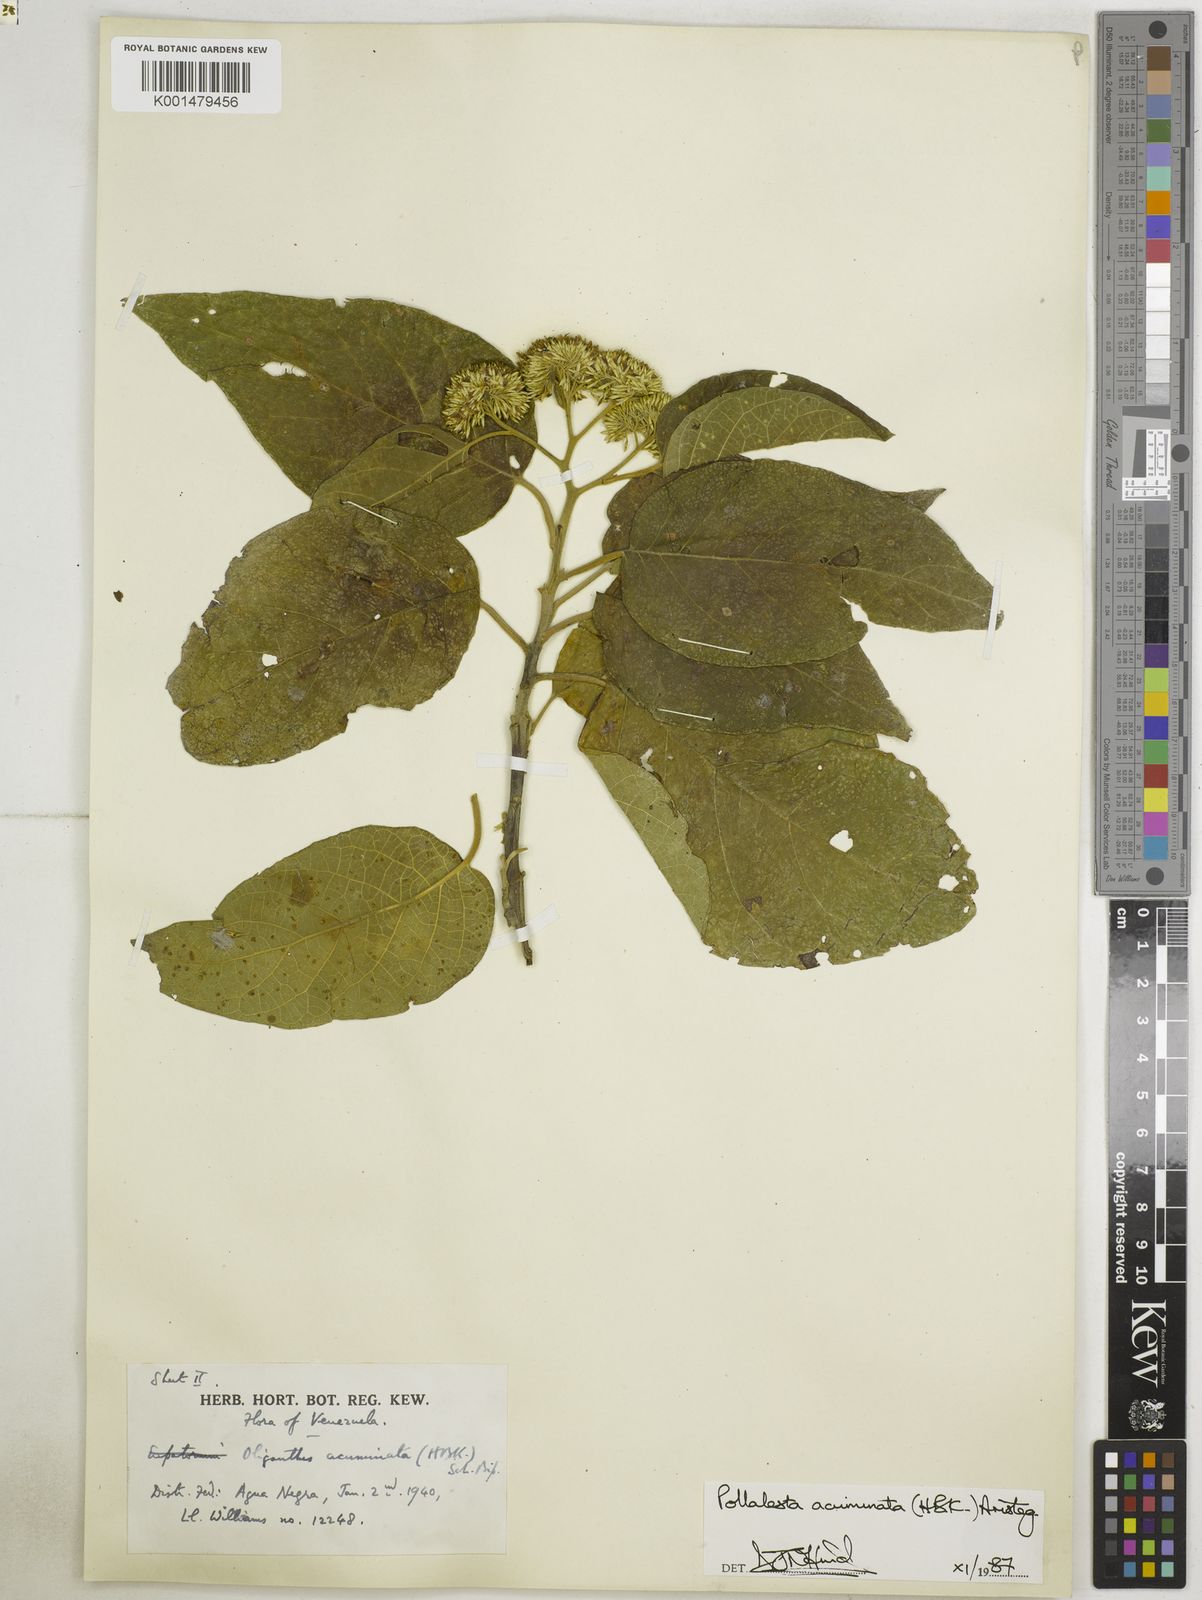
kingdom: Plantae
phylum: Tracheophyta
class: Magnoliopsida
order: Asterales
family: Asteraceae
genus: Piptocoma
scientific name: Piptocoma acuminata
